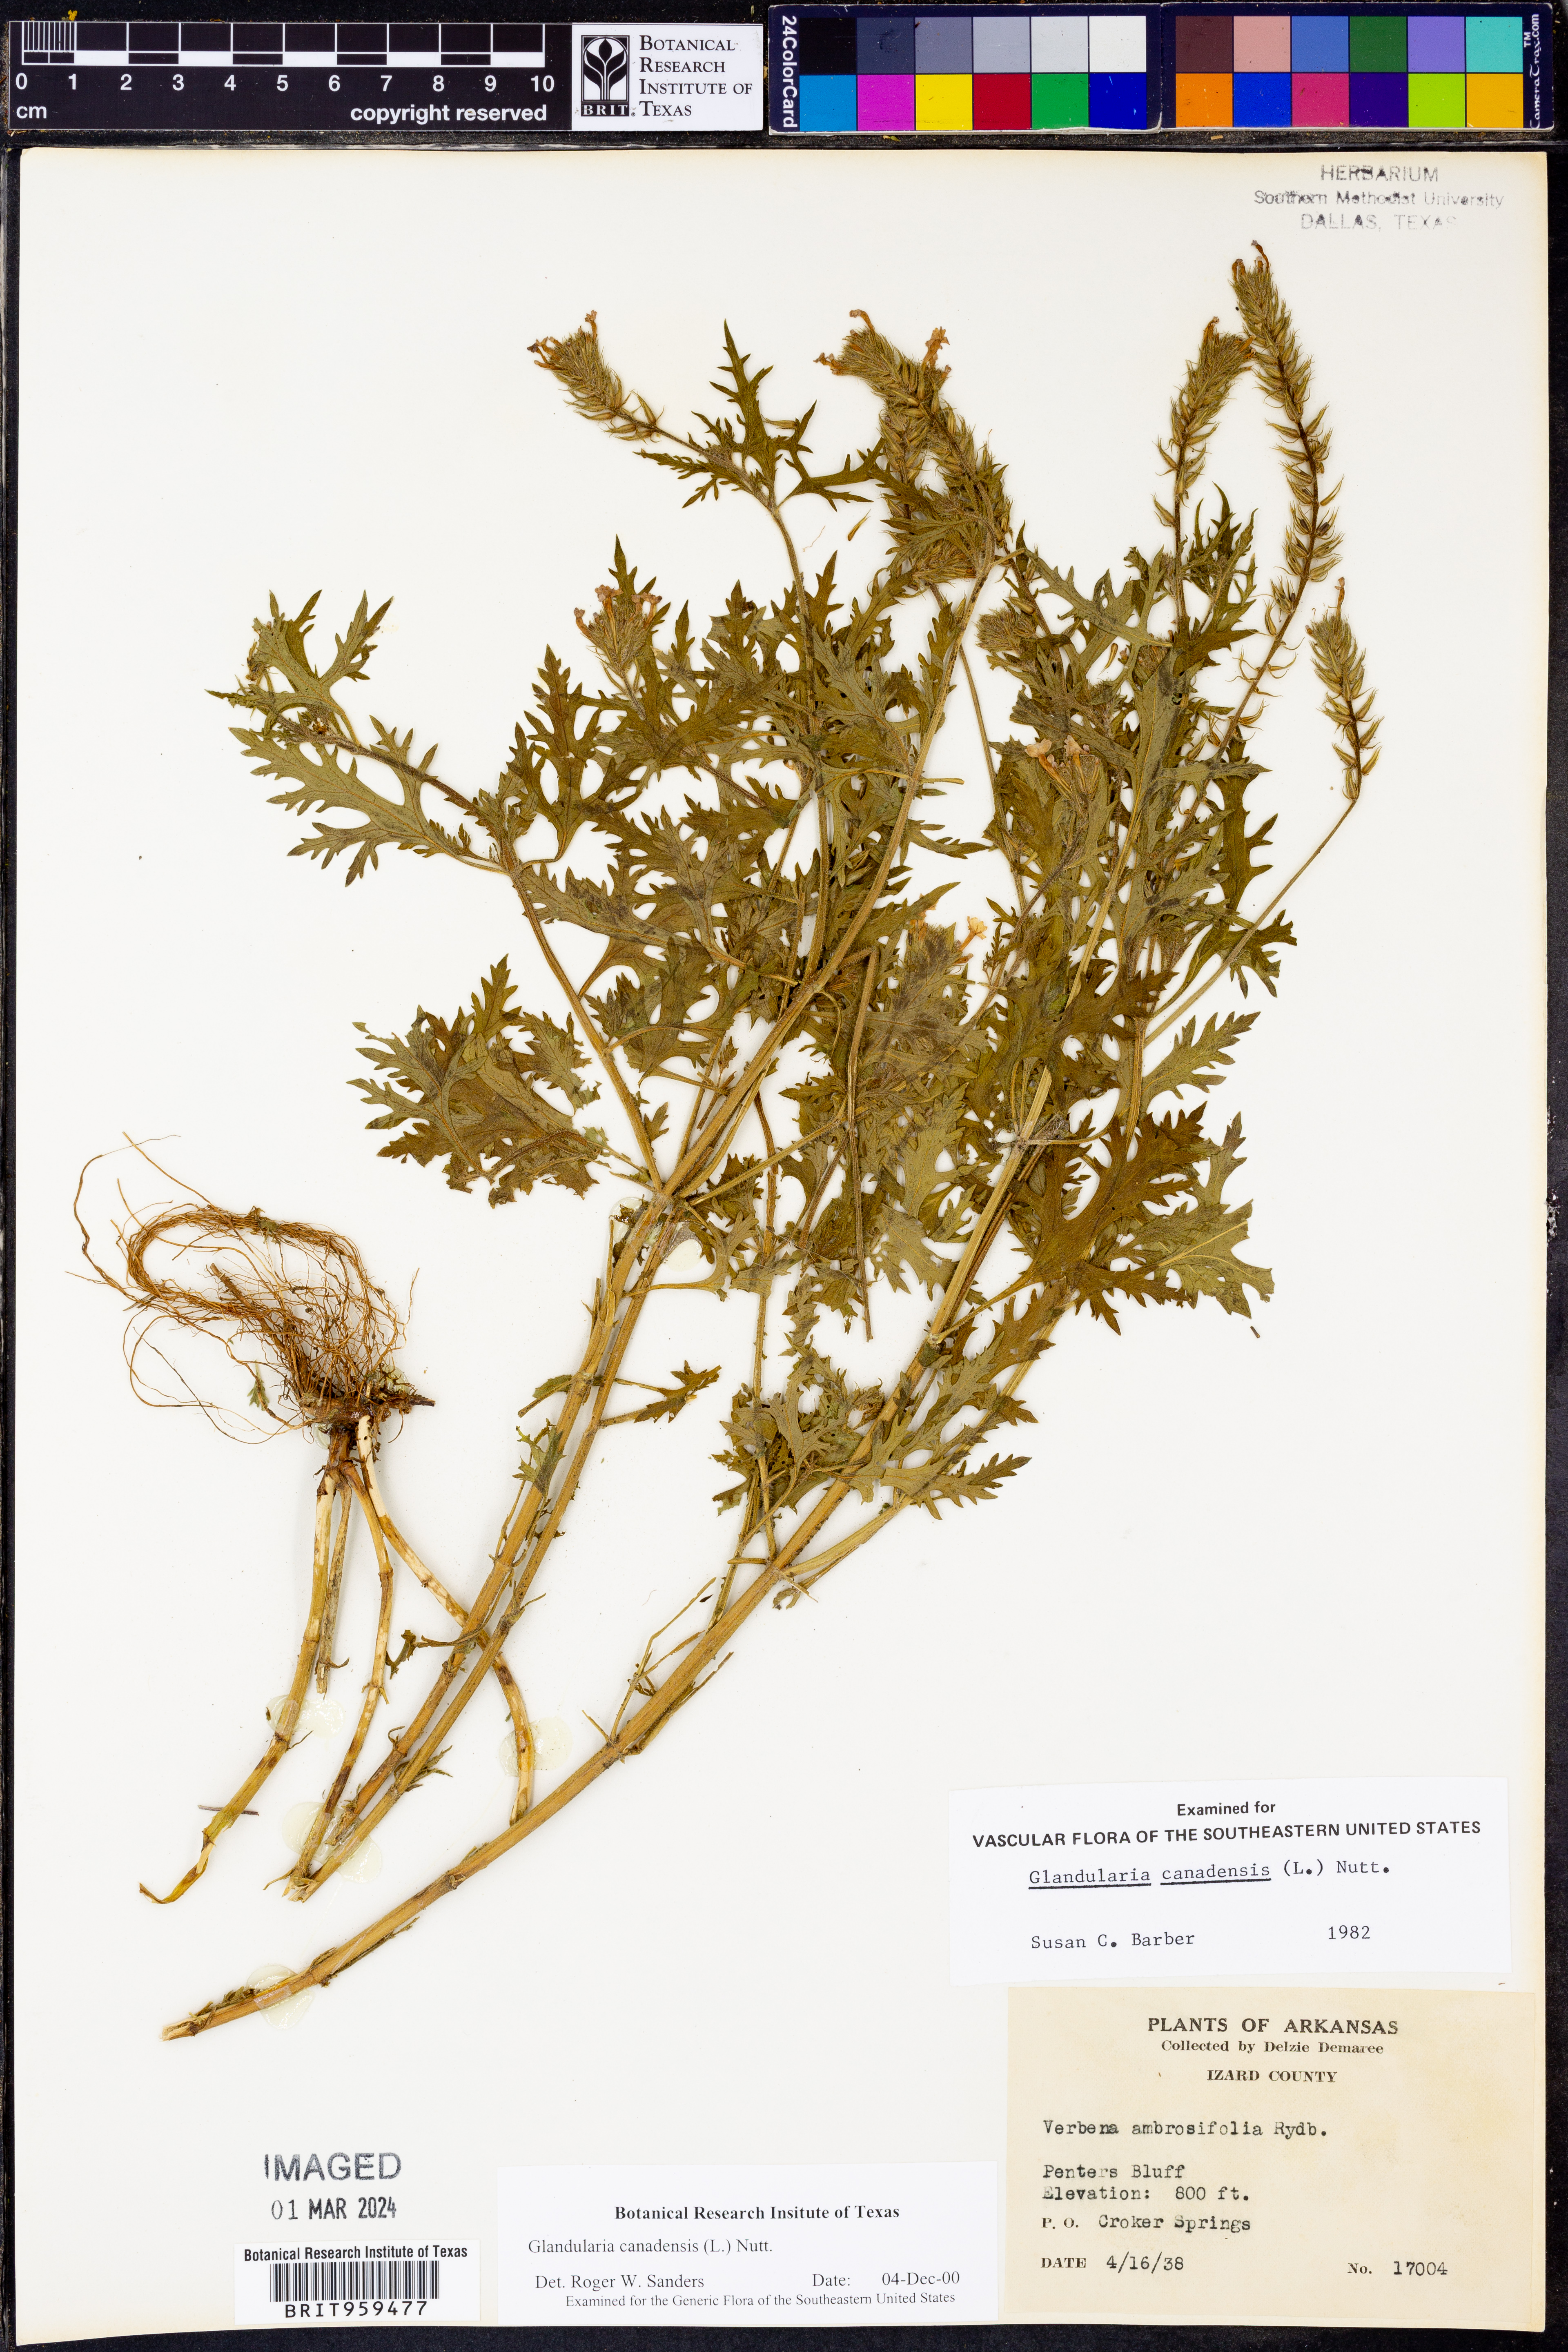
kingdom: Plantae
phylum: Tracheophyta
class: Magnoliopsida
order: Lamiales
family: Verbenaceae
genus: Verbena
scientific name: Verbena canadensis
